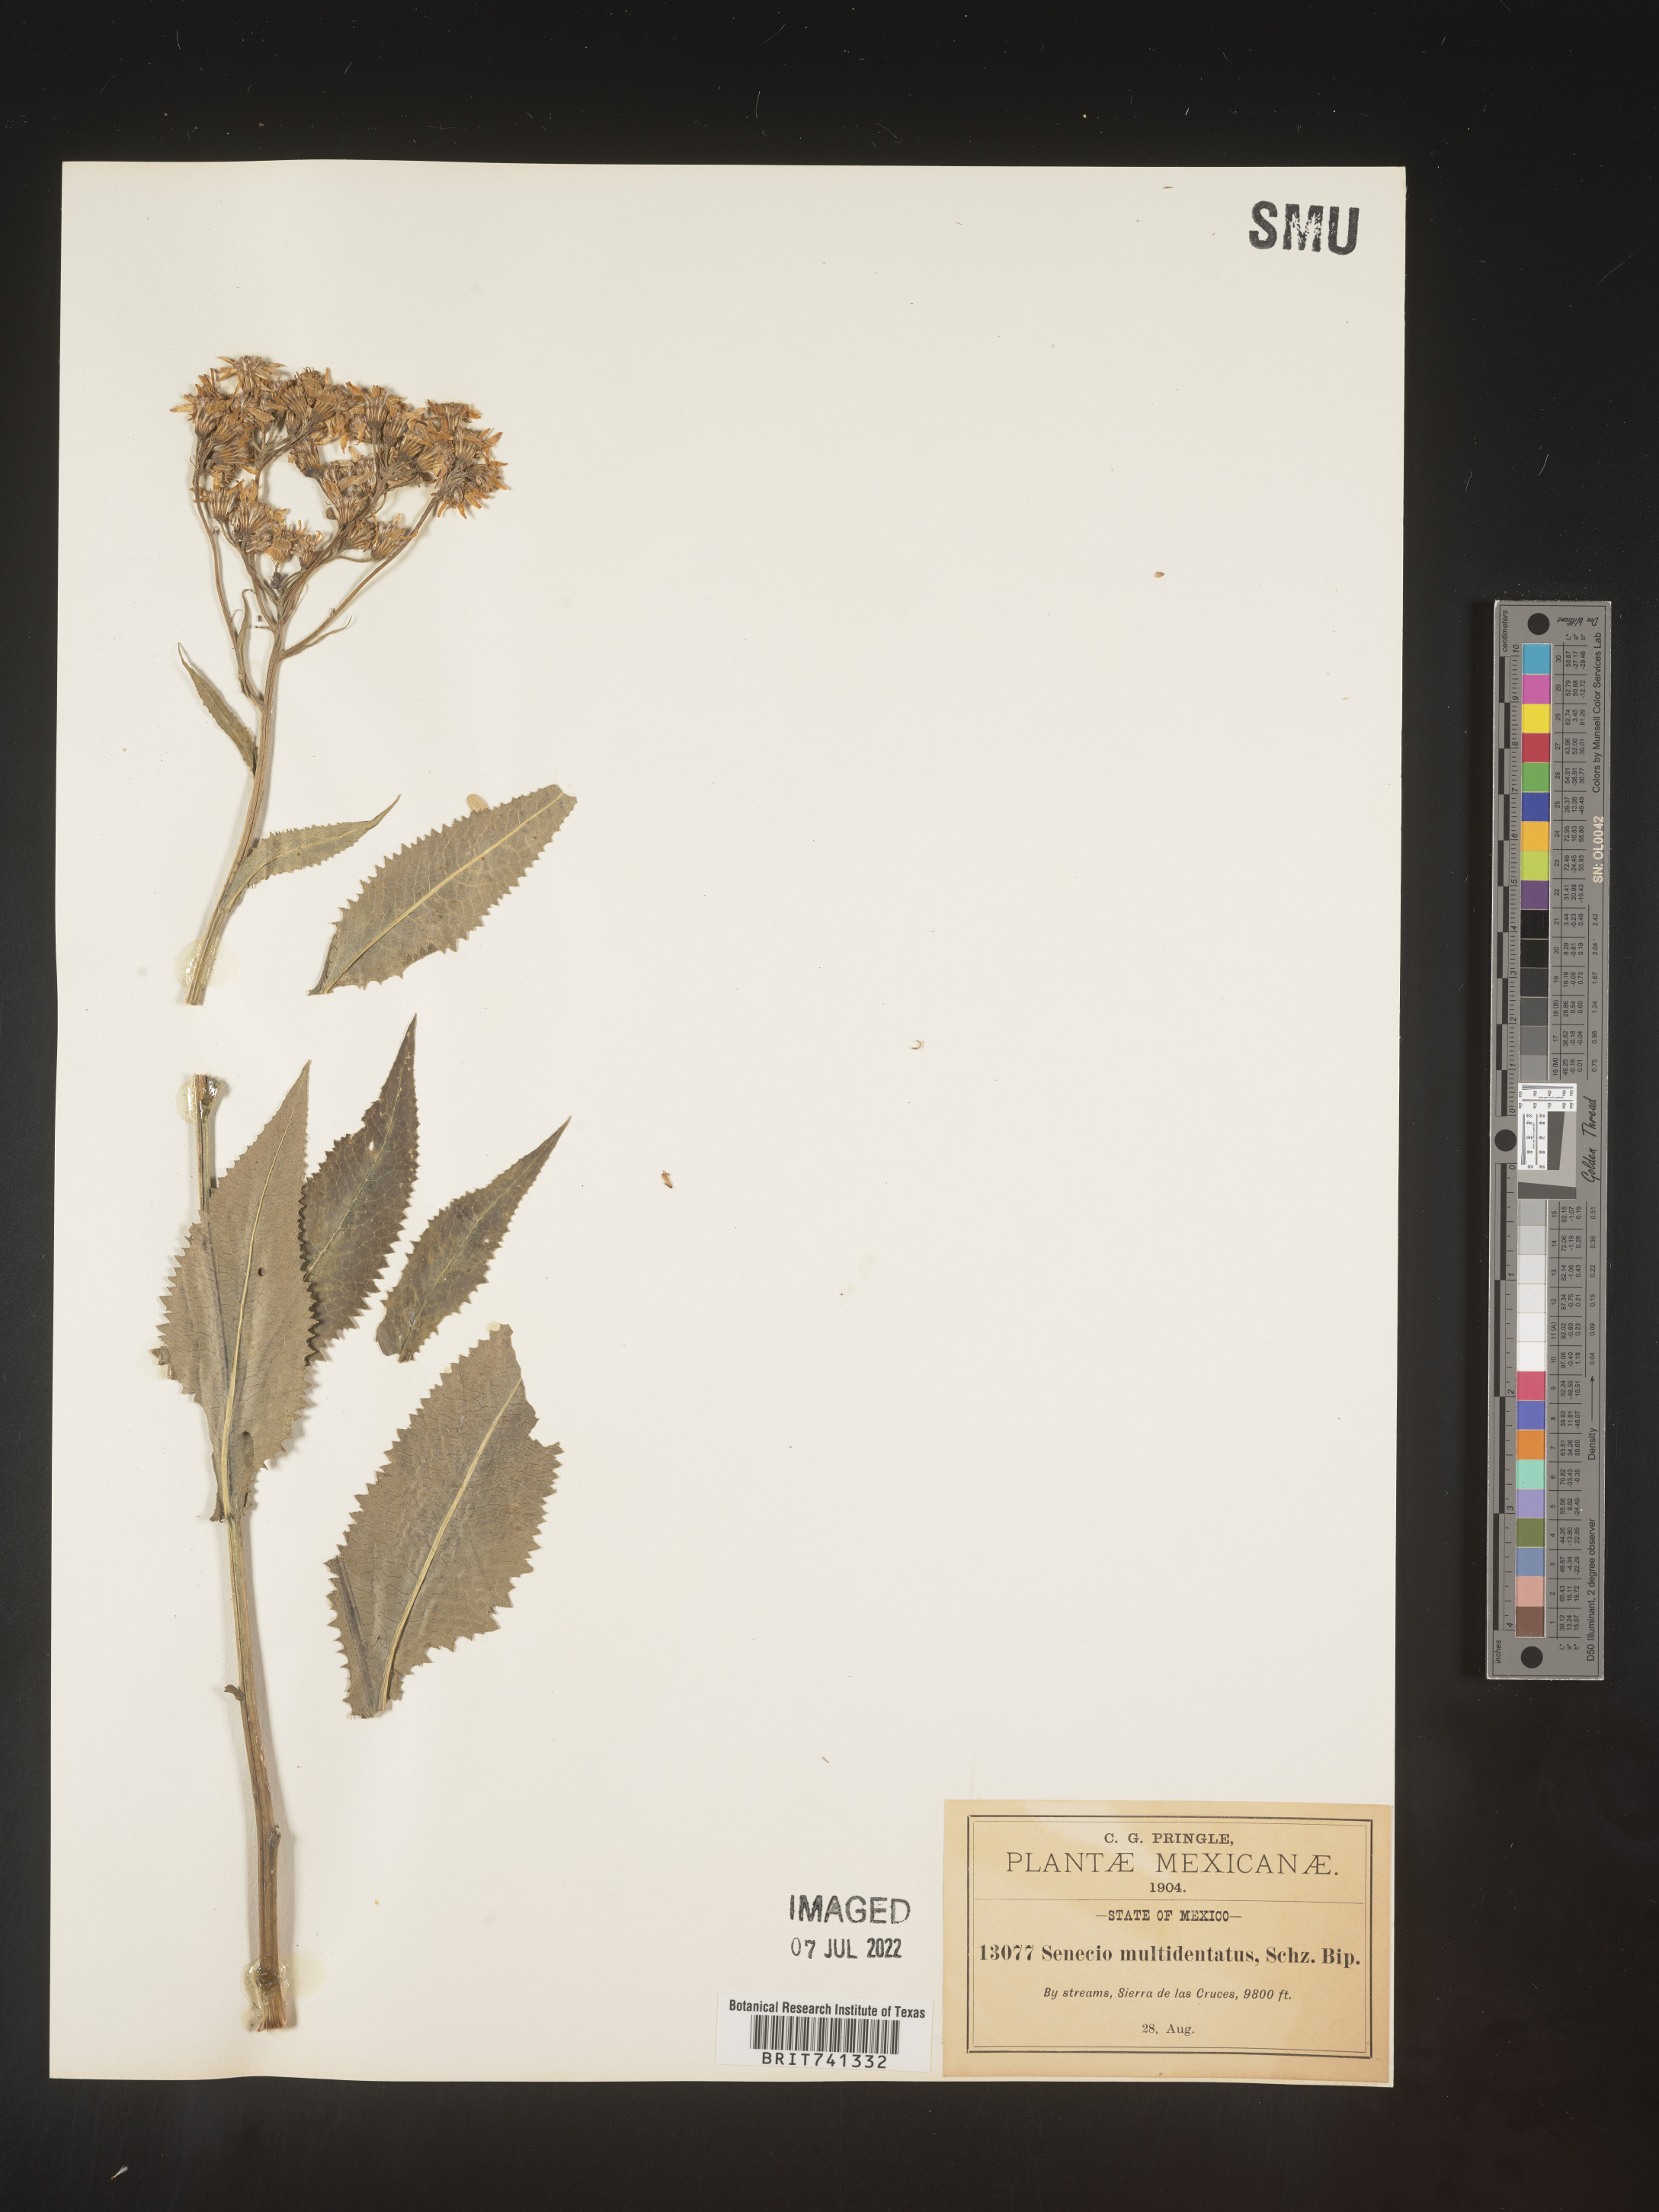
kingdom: Plantae
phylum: Tracheophyta
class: Magnoliopsida
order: Asterales
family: Asteraceae
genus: Senecio
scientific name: Senecio
